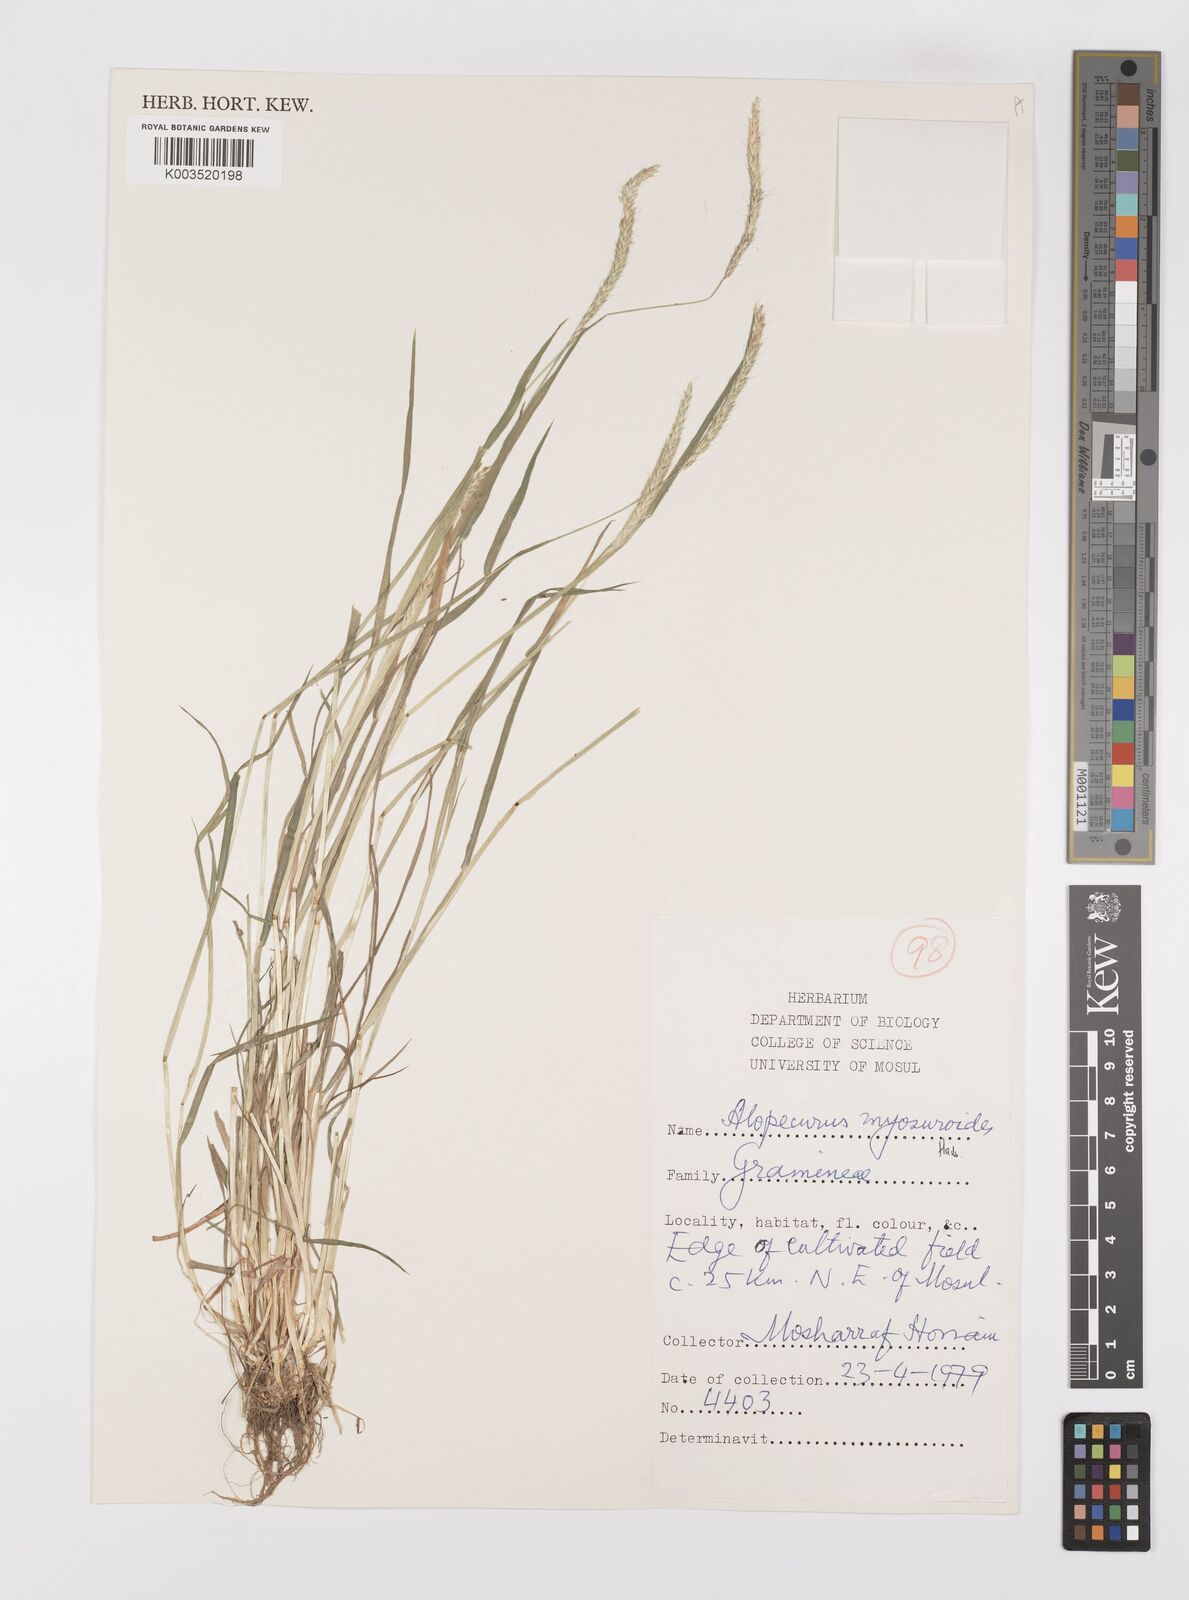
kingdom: Plantae
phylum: Tracheophyta
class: Liliopsida
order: Poales
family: Poaceae
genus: Alopecurus
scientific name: Alopecurus myosuroides
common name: Black-grass
